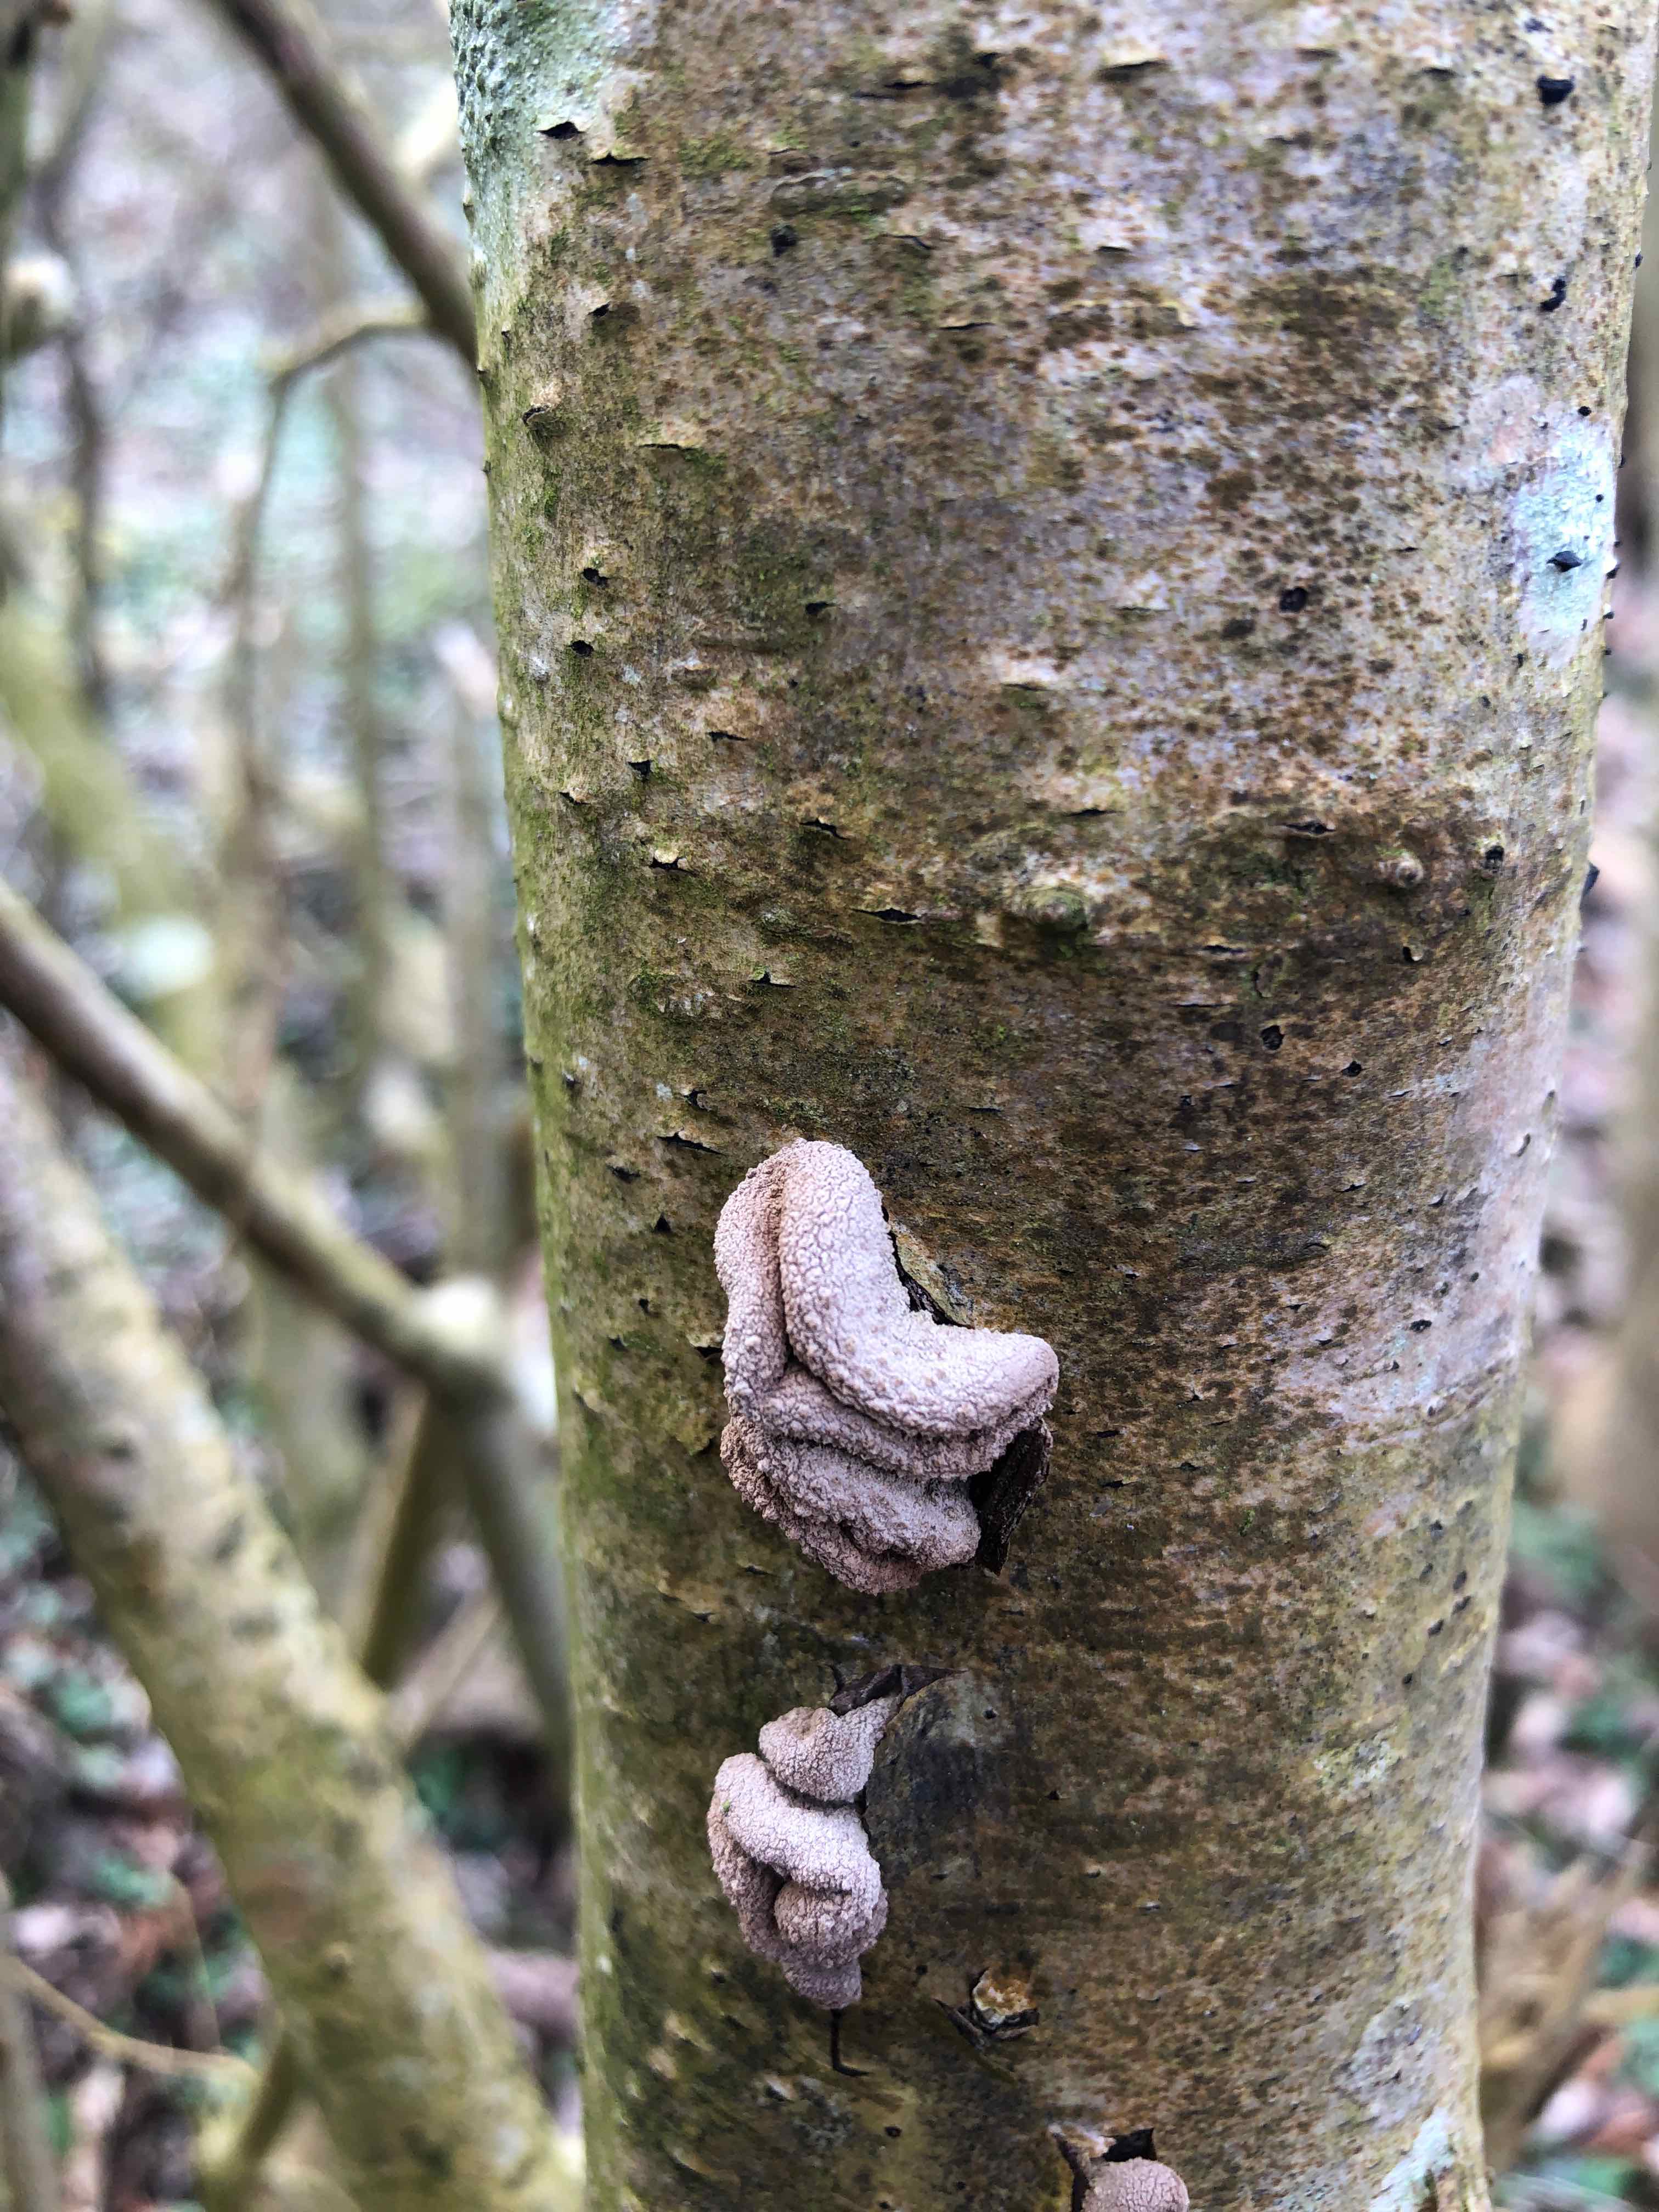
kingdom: Fungi
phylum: Ascomycota
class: Leotiomycetes
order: Helotiales
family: Cenangiaceae
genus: Encoelia
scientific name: Encoelia furfuracea
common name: hassel-læderskive
